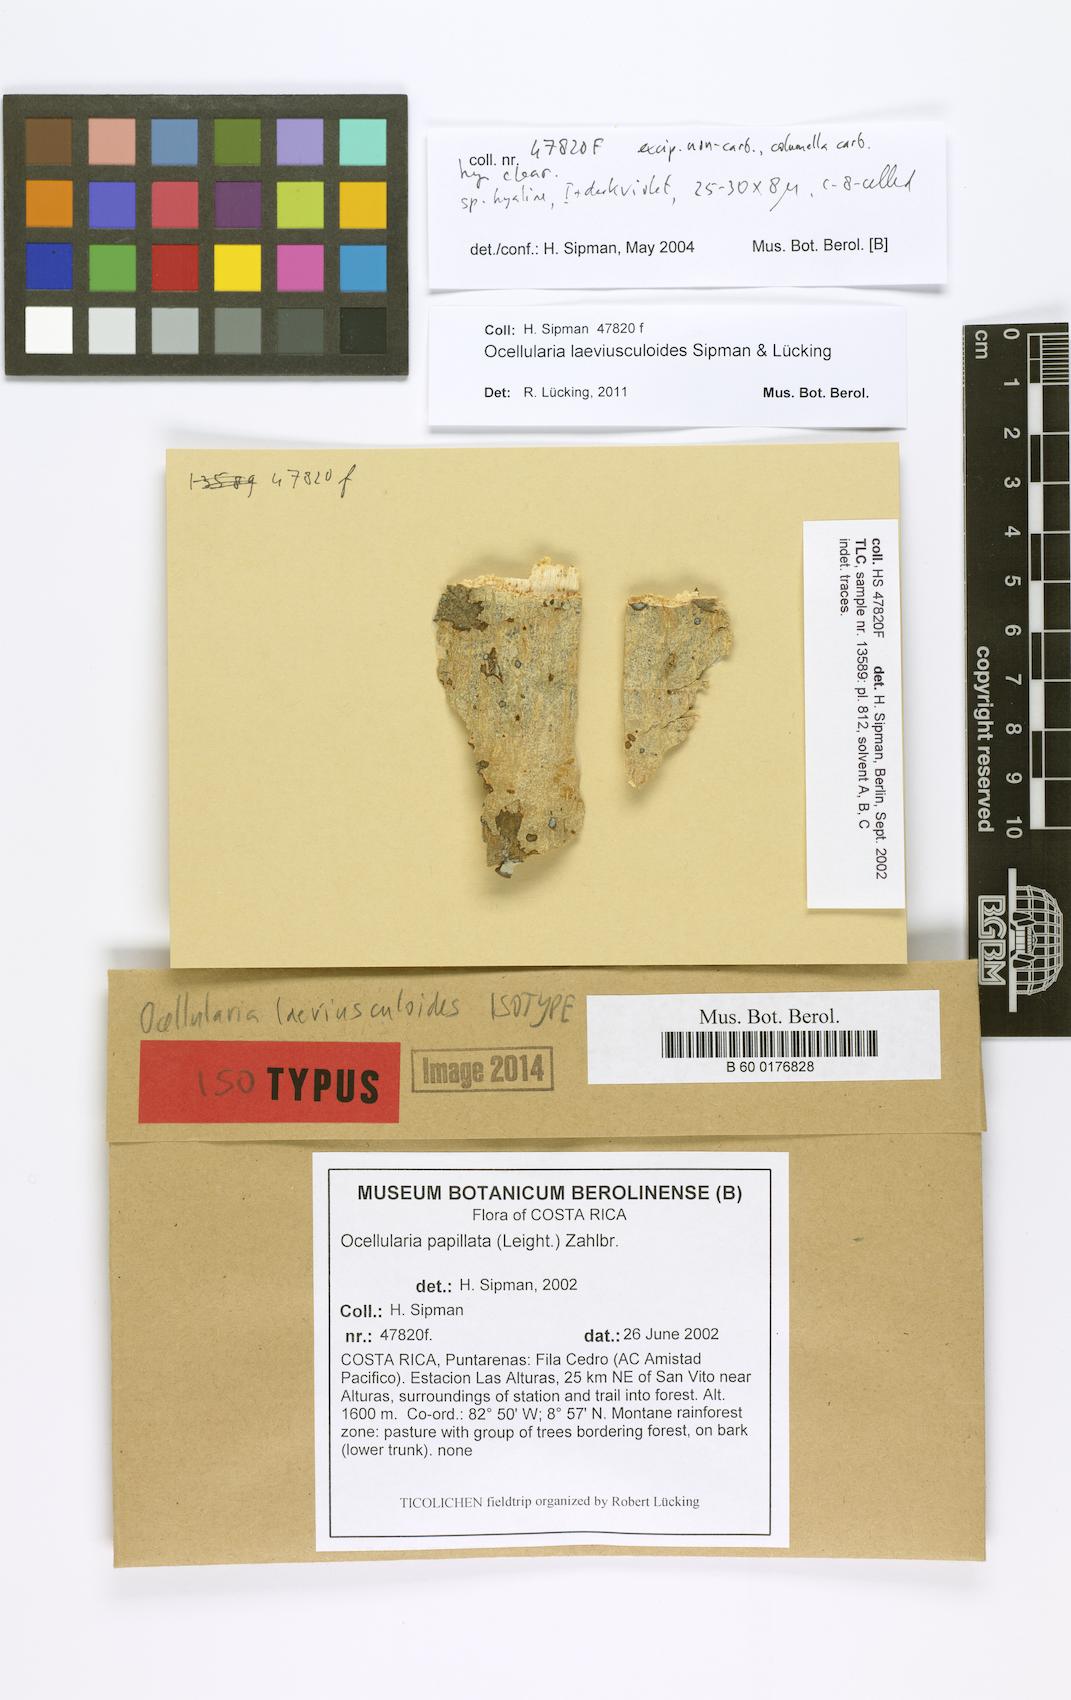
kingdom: Fungi
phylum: Ascomycota
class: Lecanoromycetes
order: Ostropales
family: Graphidaceae
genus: Ocellularia
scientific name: Ocellularia laeviusculoides
